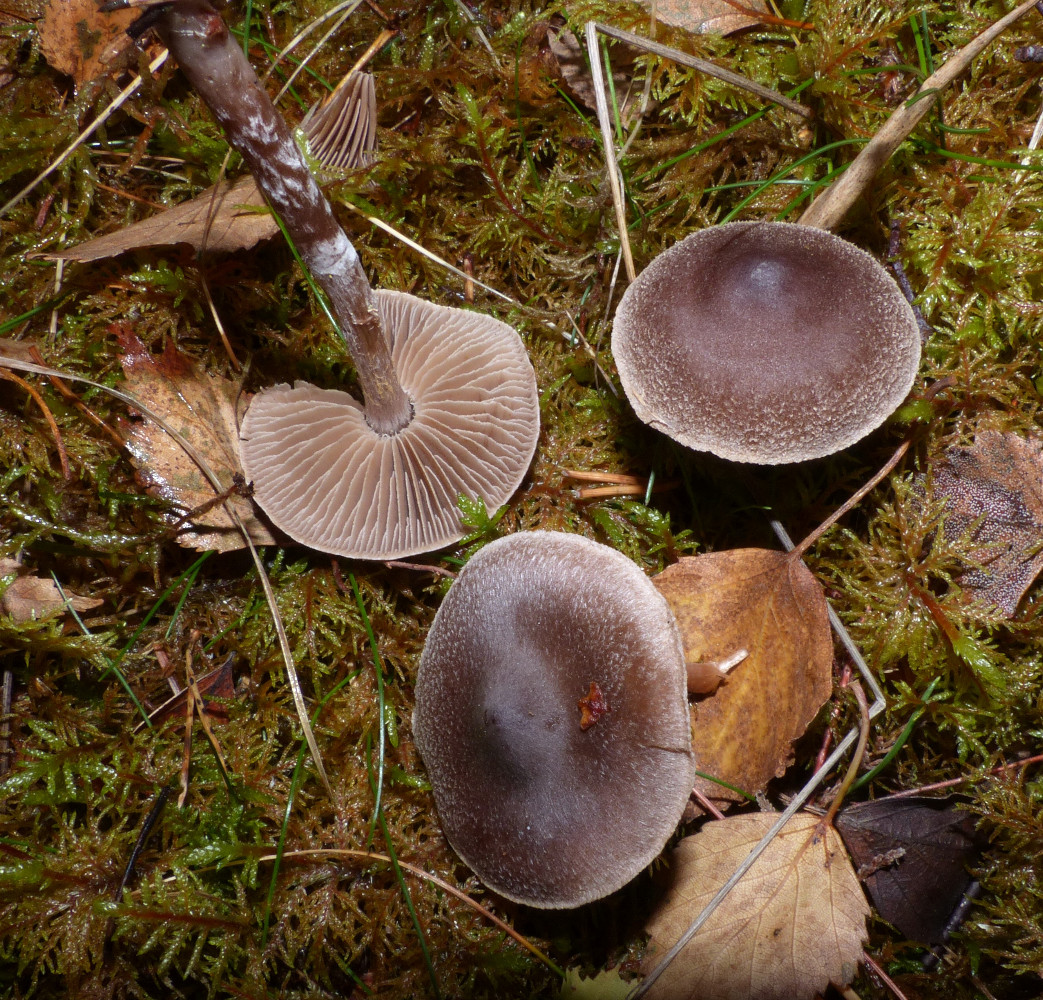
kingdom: Fungi
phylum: Basidiomycota
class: Agaricomycetes
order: Agaricales
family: Cortinariaceae
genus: Cortinarius
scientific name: Cortinarius hemitrichus
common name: hvidfnugget slørhat
